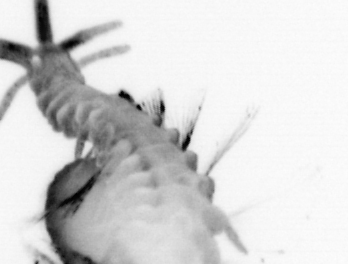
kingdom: Animalia
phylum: Annelida
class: Polychaeta
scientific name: Polychaeta
